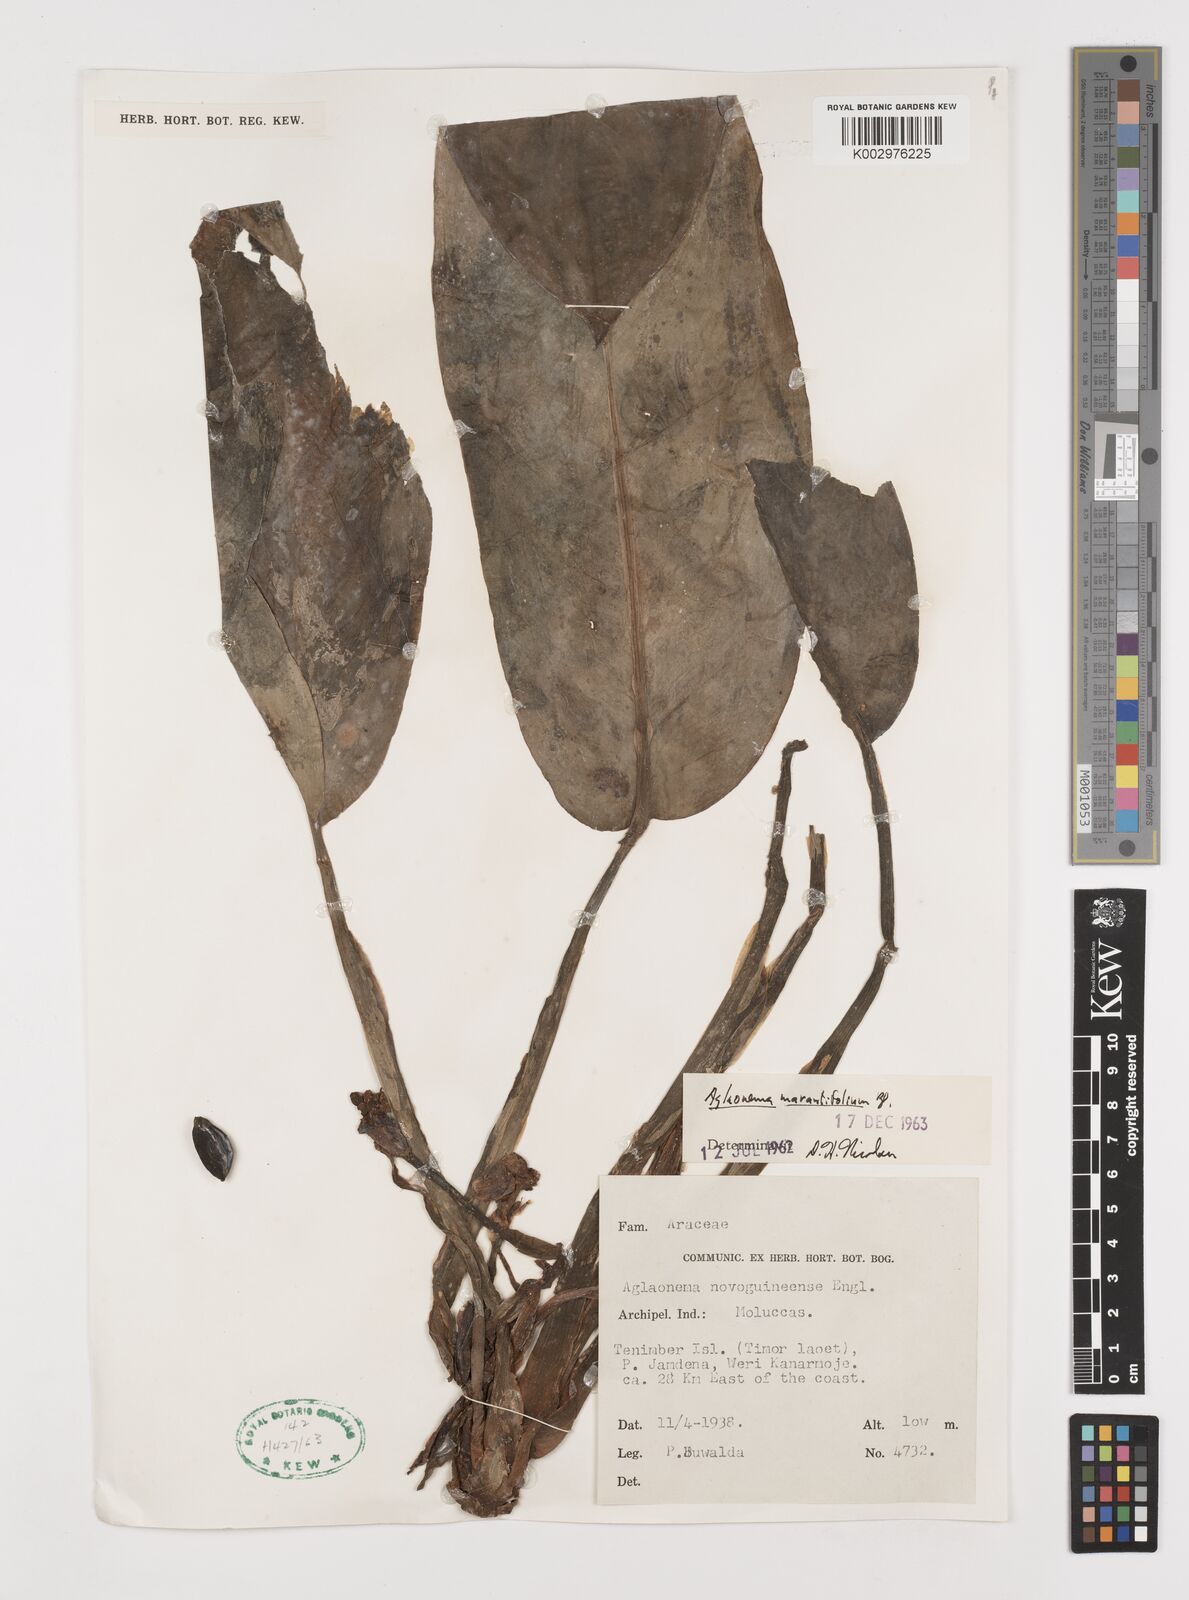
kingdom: Plantae
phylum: Tracheophyta
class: Liliopsida
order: Alismatales
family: Araceae
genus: Aglaonema
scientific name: Aglaonema marantifolium
